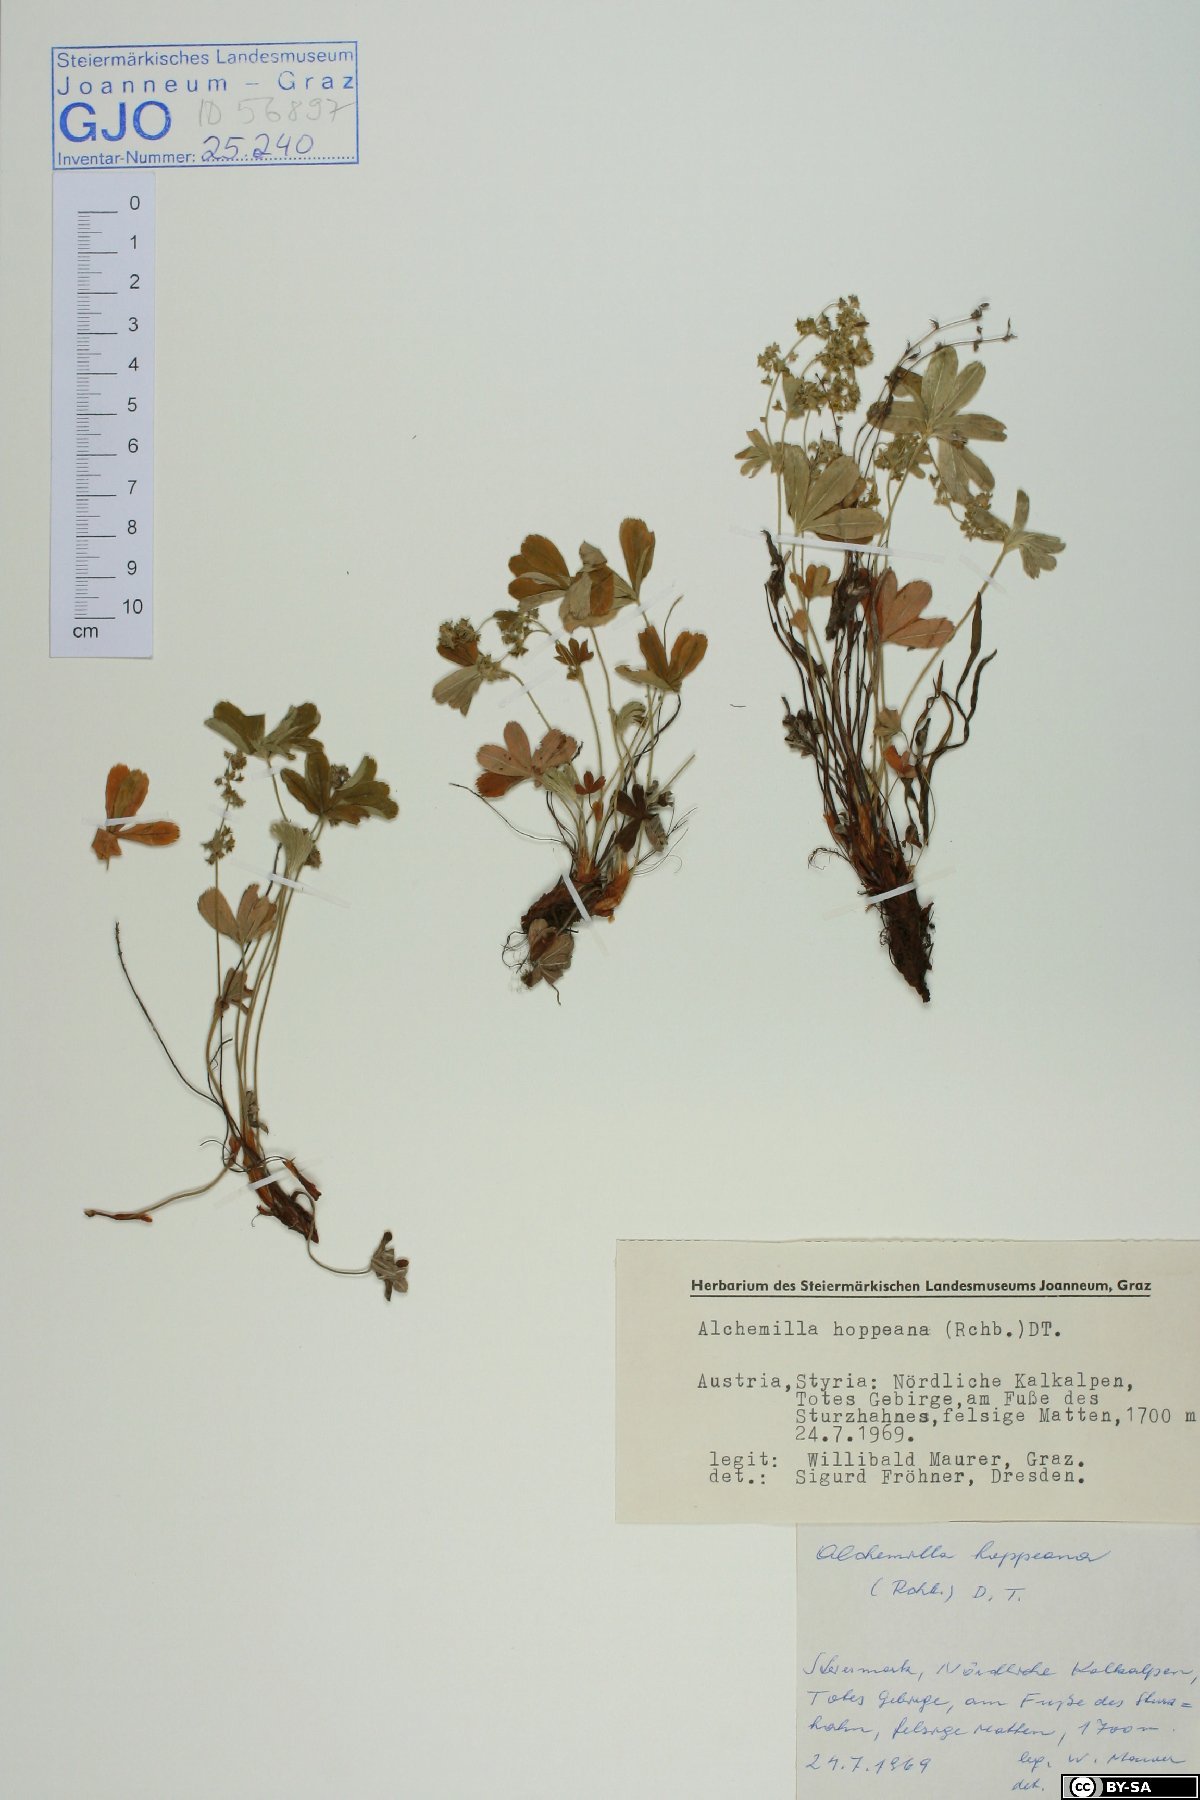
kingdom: Plantae
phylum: Tracheophyta
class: Magnoliopsida
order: Rosales
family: Rosaceae
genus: Alchemilla
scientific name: Alchemilla hoppeana
